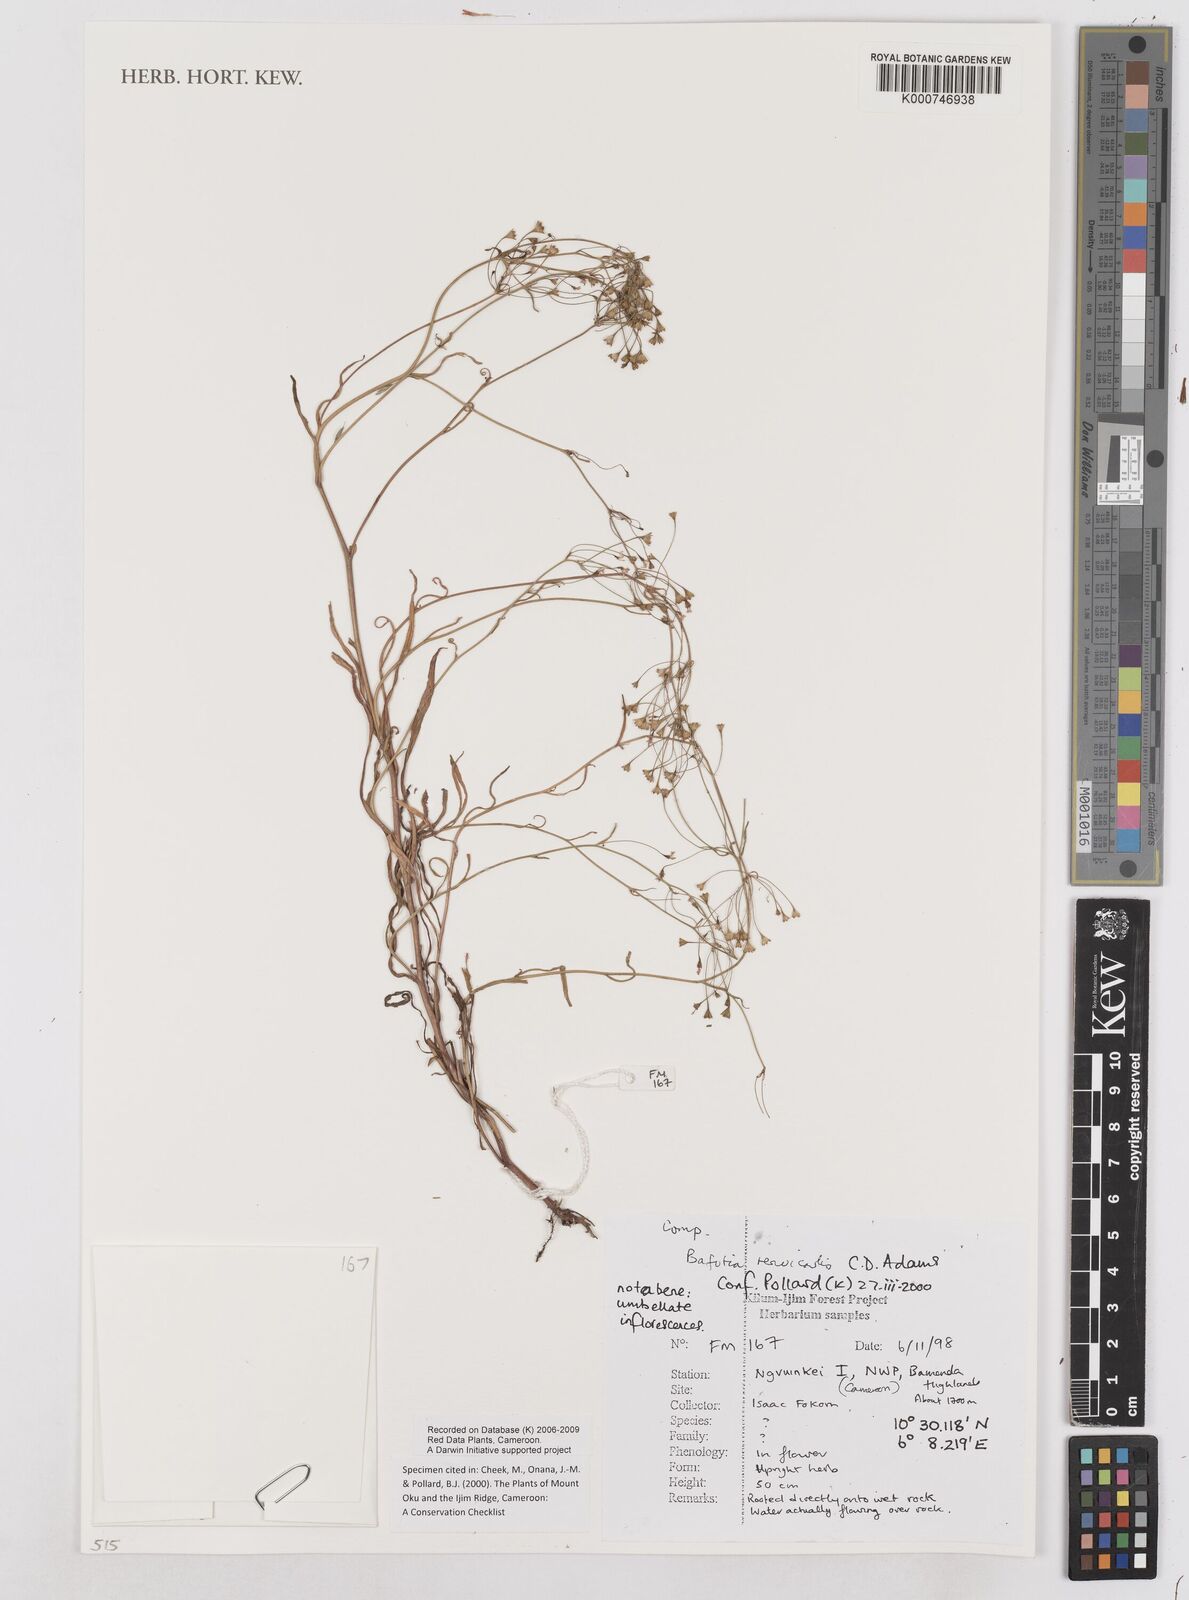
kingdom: Plantae
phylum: Tracheophyta
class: Magnoliopsida
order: Asterales
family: Asteraceae
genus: Emilia
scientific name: Emilia tenuicaulis
